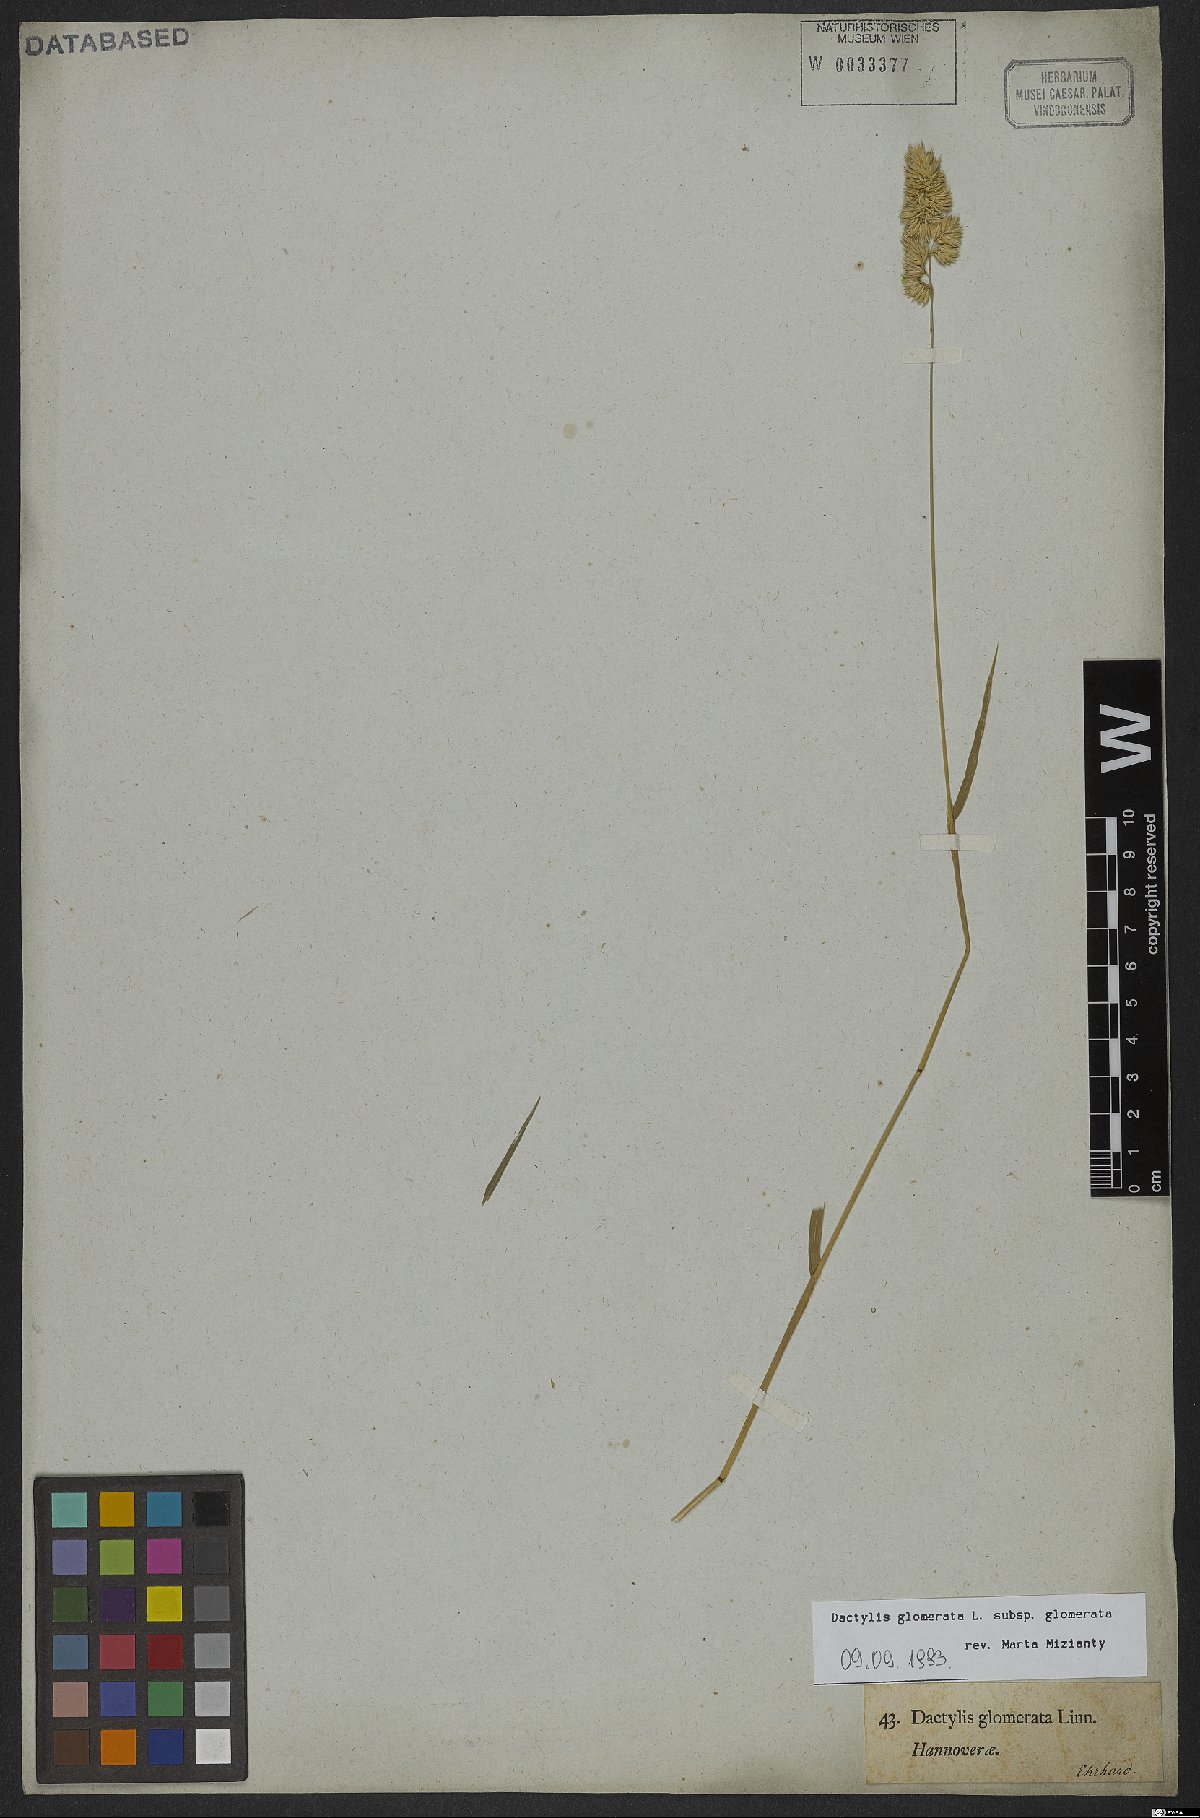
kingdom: Plantae
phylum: Tracheophyta
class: Liliopsida
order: Poales
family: Poaceae
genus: Dactylis
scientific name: Dactylis glomerata
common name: Orchardgrass
